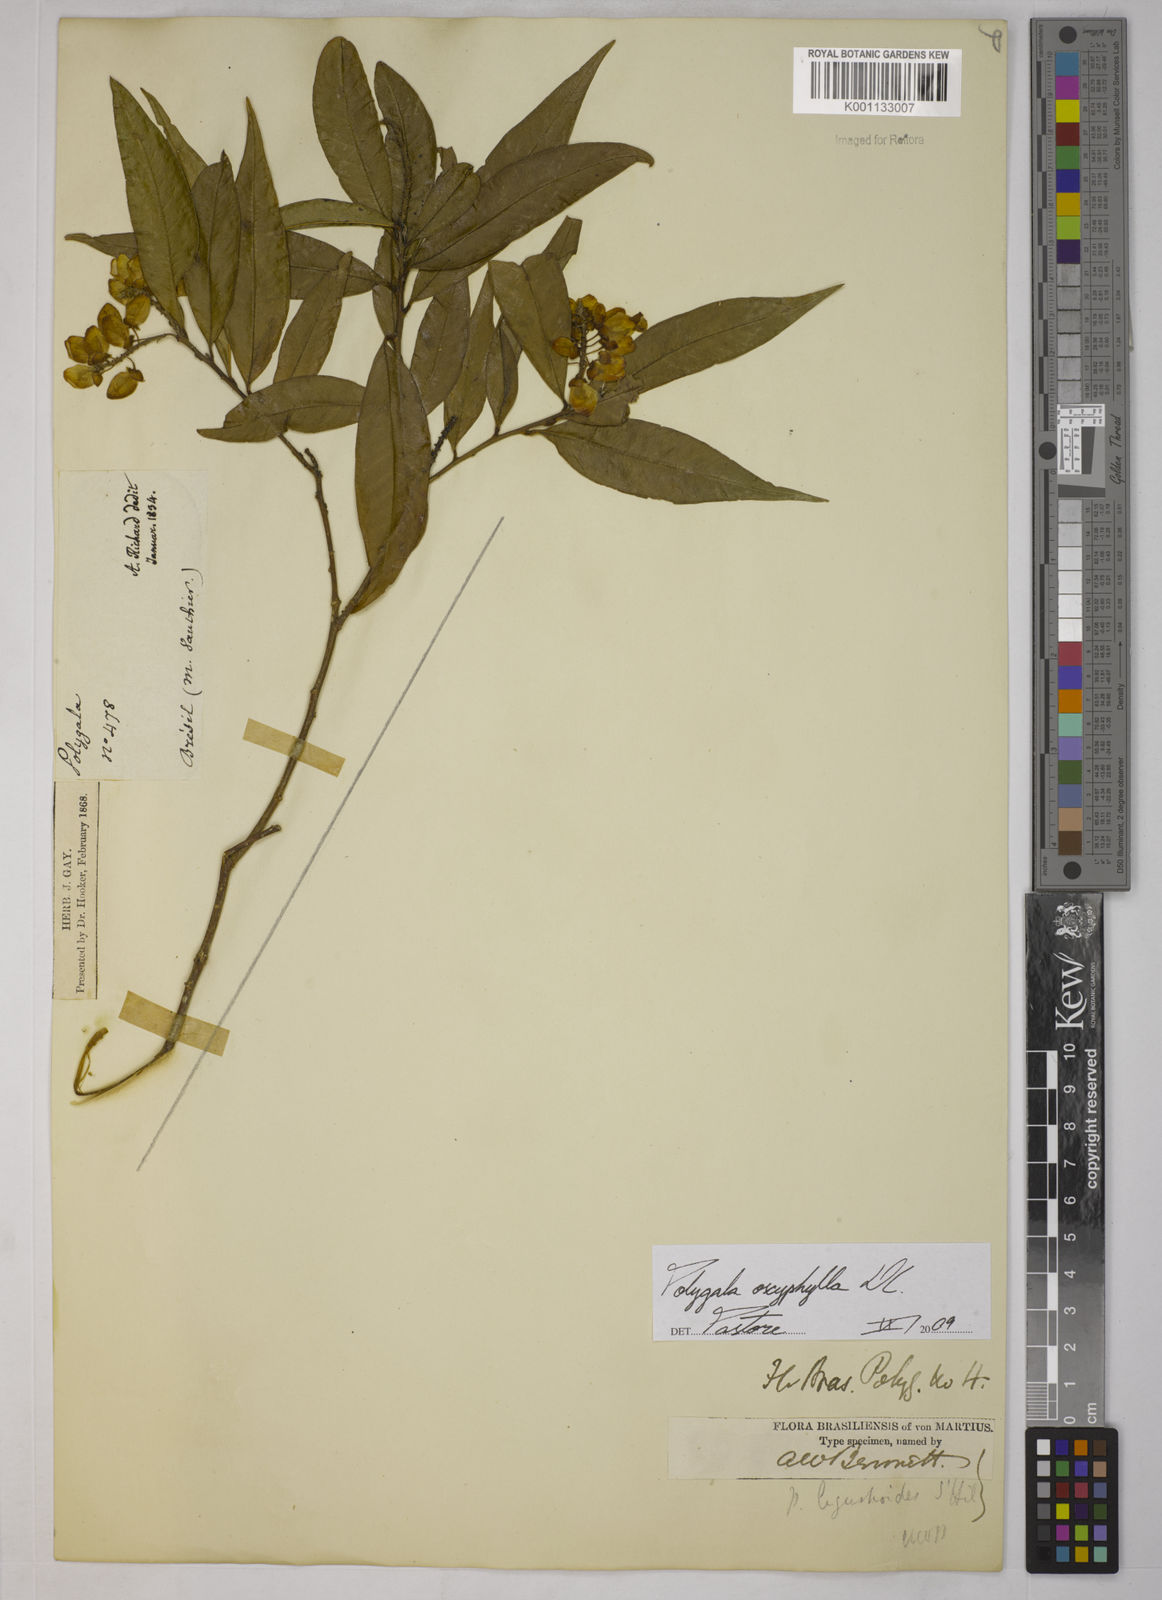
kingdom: Plantae
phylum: Tracheophyta
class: Magnoliopsida
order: Fabales
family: Polygalaceae
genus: Caamembeca
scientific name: Caamembeca oxyphylla
